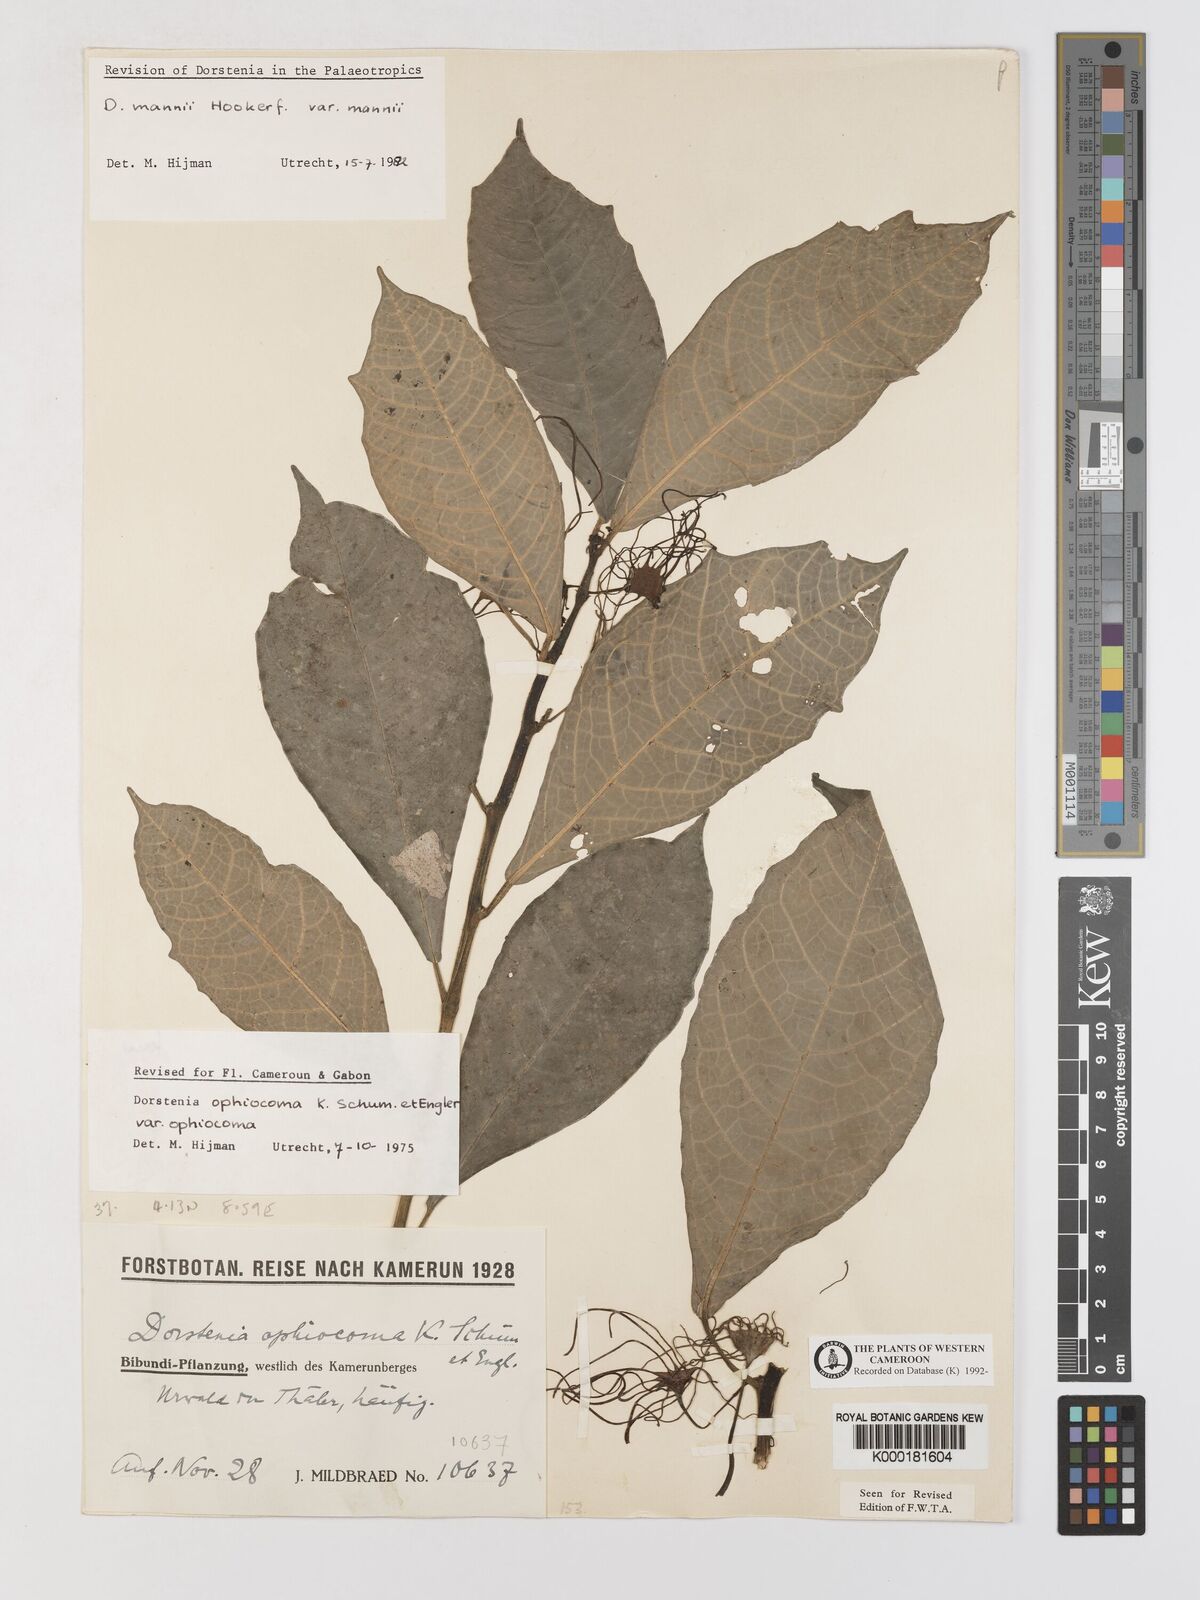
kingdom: Plantae
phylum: Tracheophyta
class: Magnoliopsida
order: Rosales
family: Moraceae
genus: Dorstenia
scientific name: Dorstenia mannii
